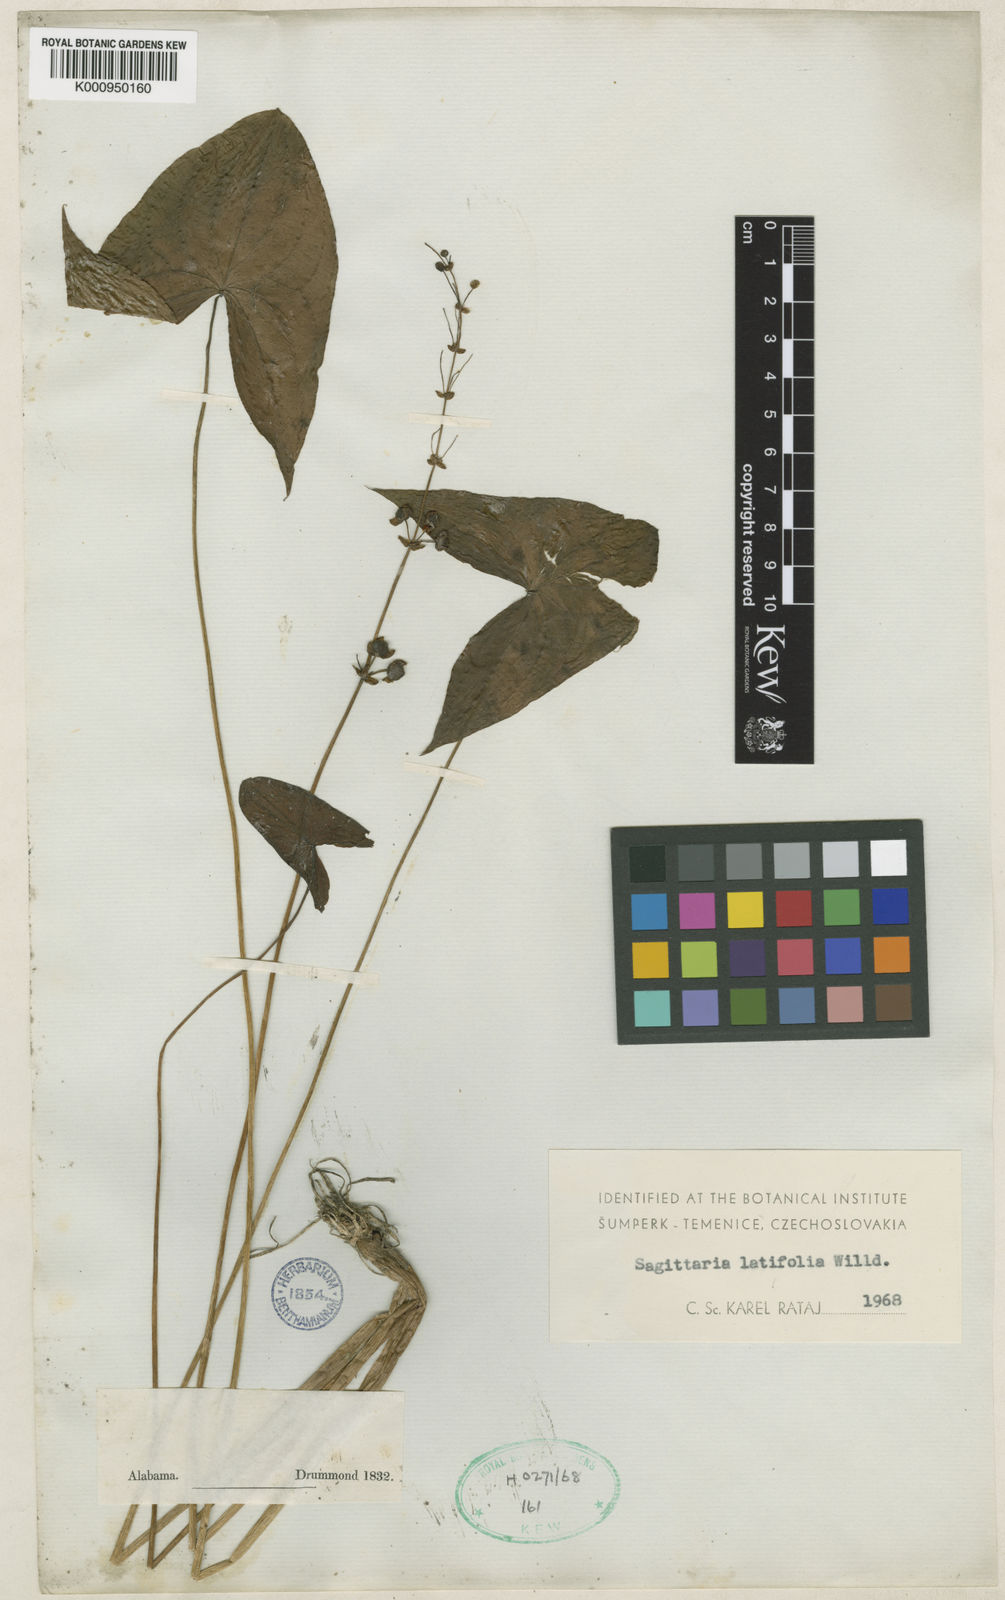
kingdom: Plantae
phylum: Tracheophyta
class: Liliopsida
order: Alismatales
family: Alismataceae
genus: Sagittaria
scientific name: Sagittaria latifolia
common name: Duck-potato
